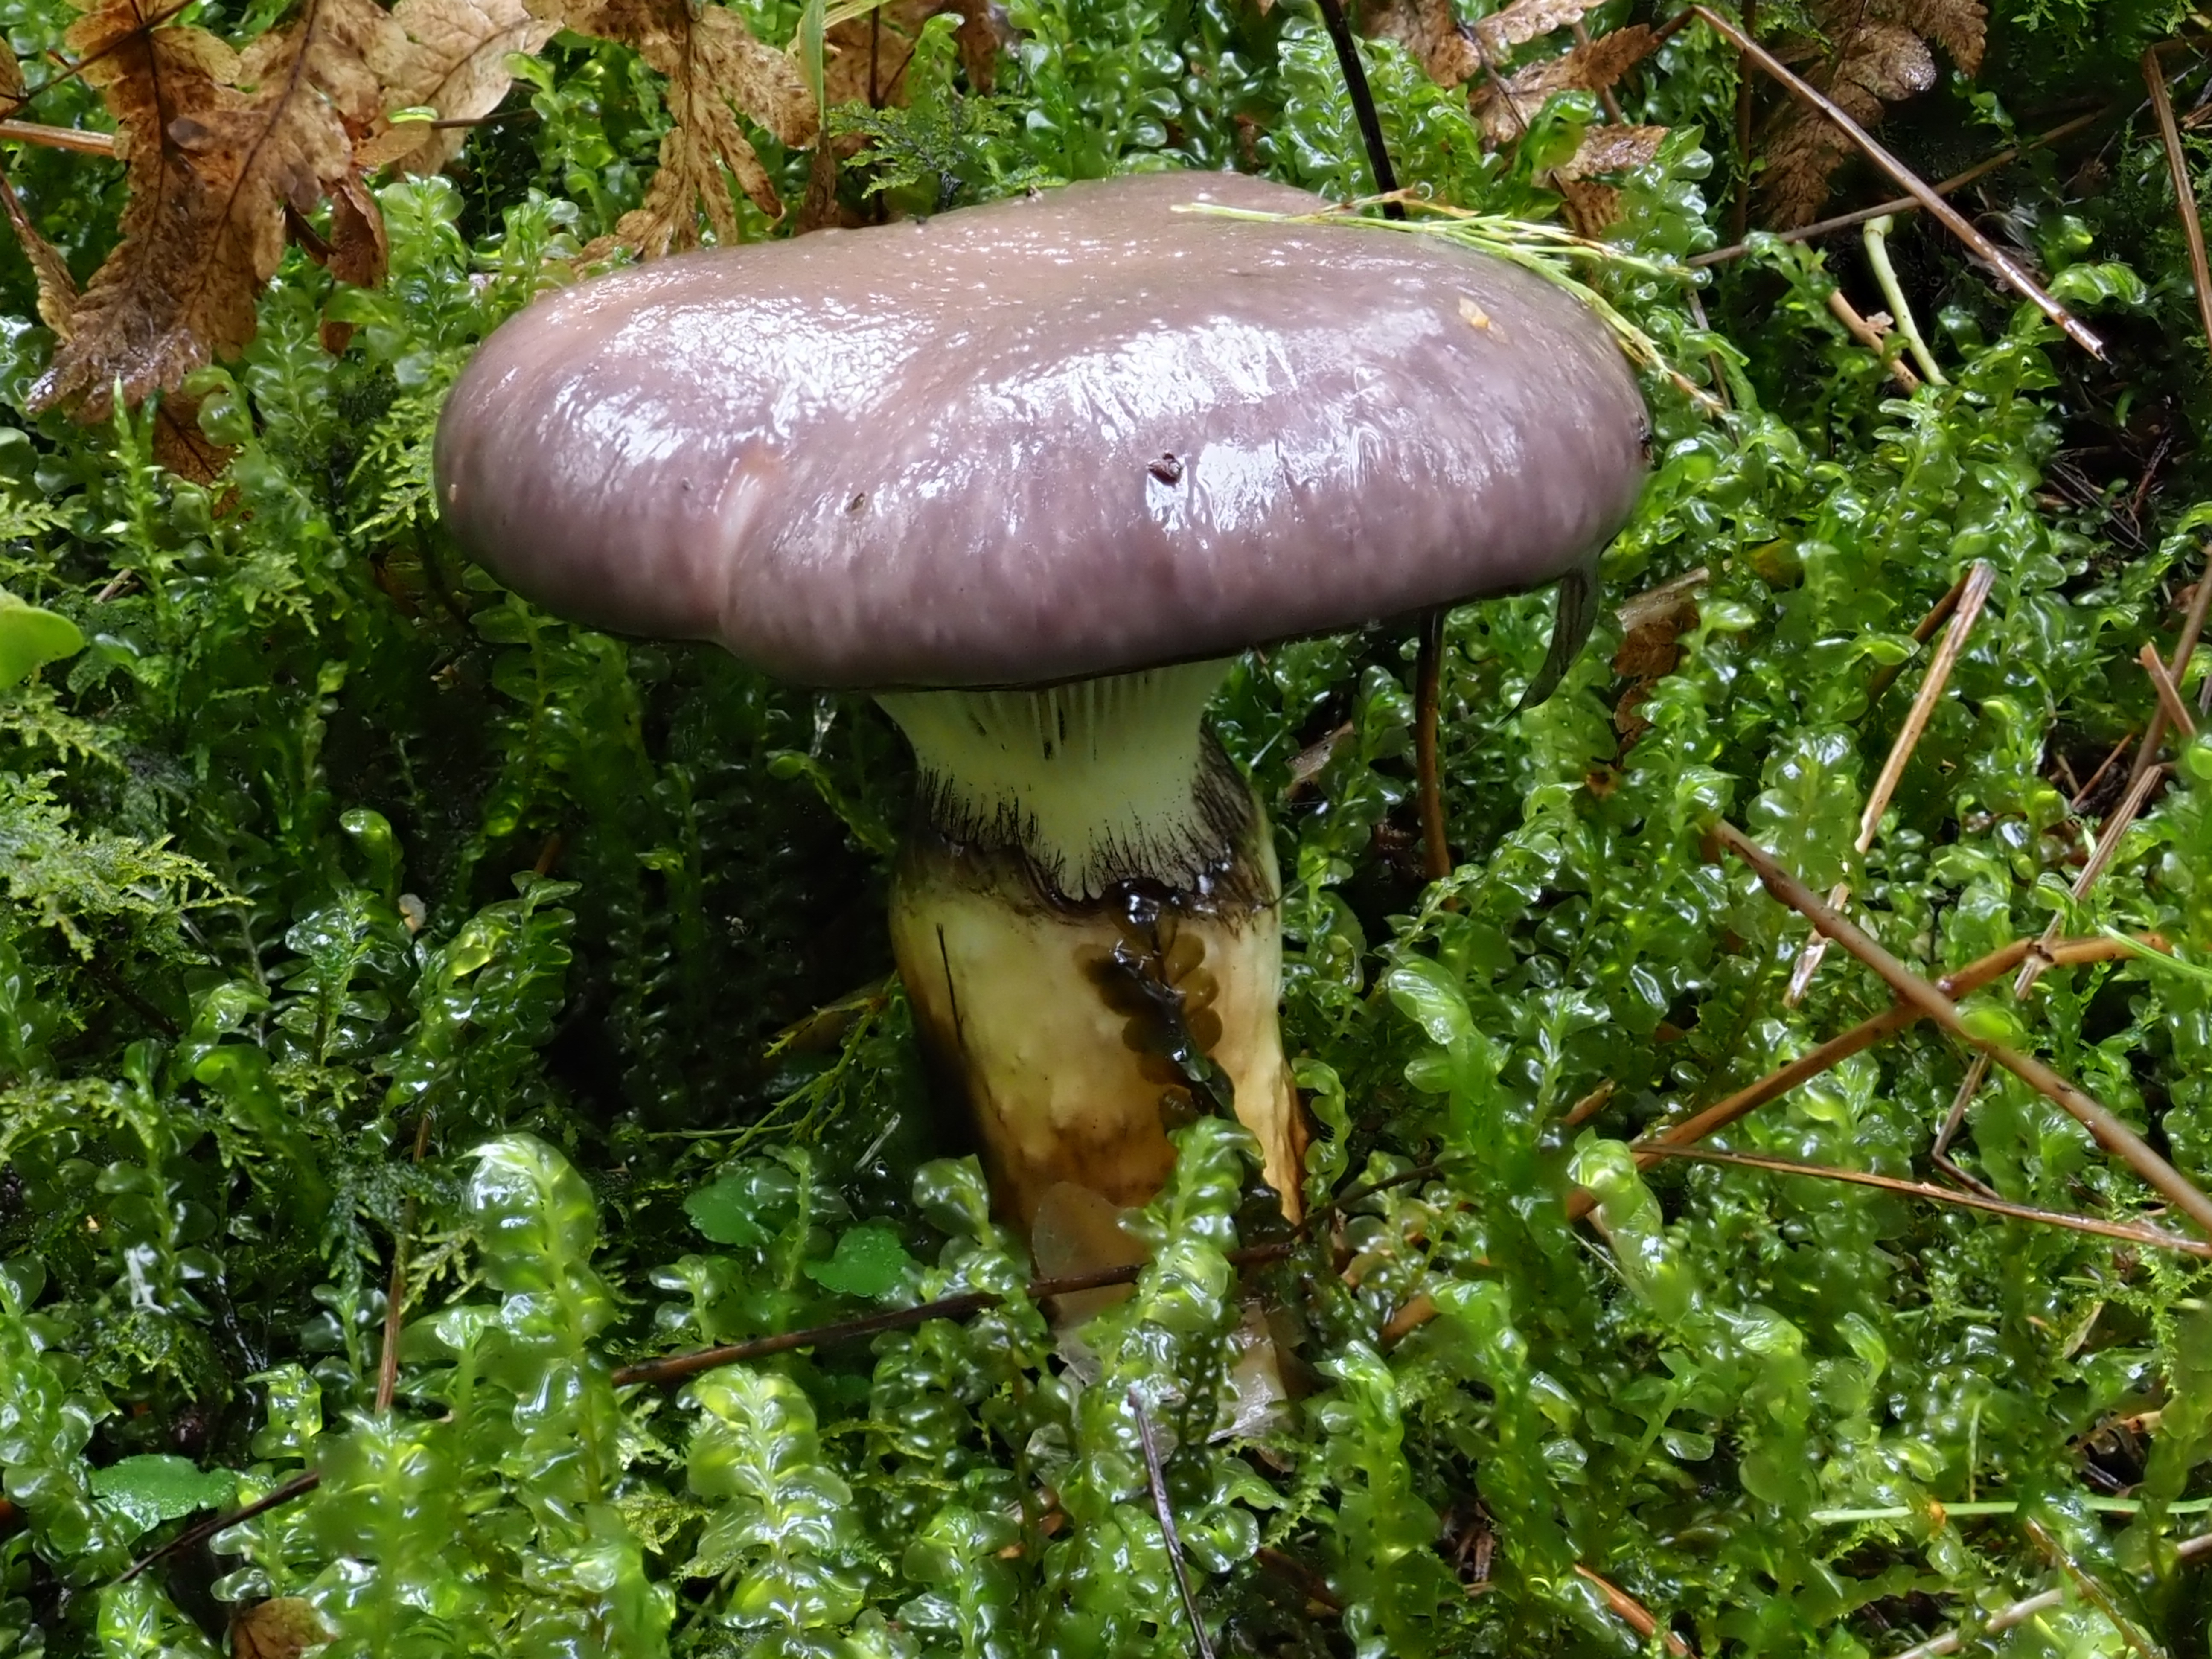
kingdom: Fungi
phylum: Basidiomycota
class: Agaricomycetes
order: Boletales
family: Gomphidiaceae
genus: Gomphidius
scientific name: Gomphidius glutinosus
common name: Slimy spike
